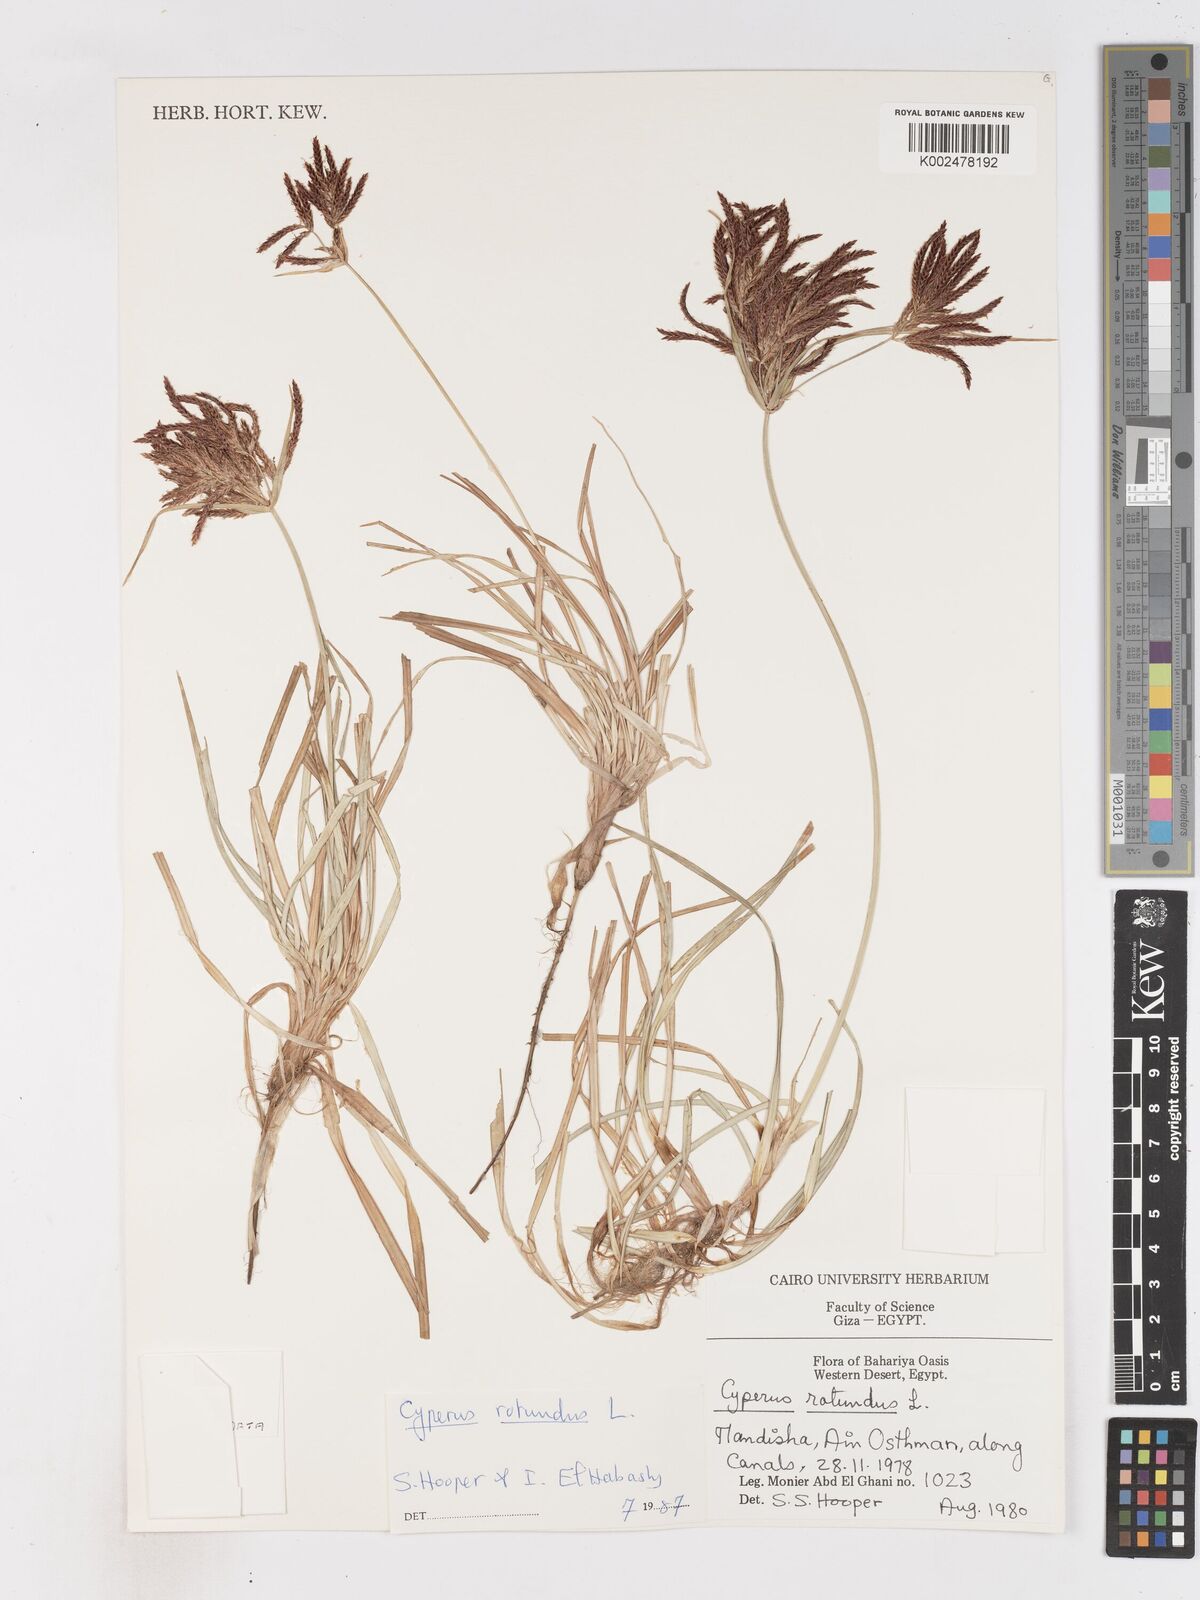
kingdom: Plantae
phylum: Tracheophyta
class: Liliopsida
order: Poales
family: Cyperaceae
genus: Cyperus
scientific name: Cyperus rotundus
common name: Nutgrass
